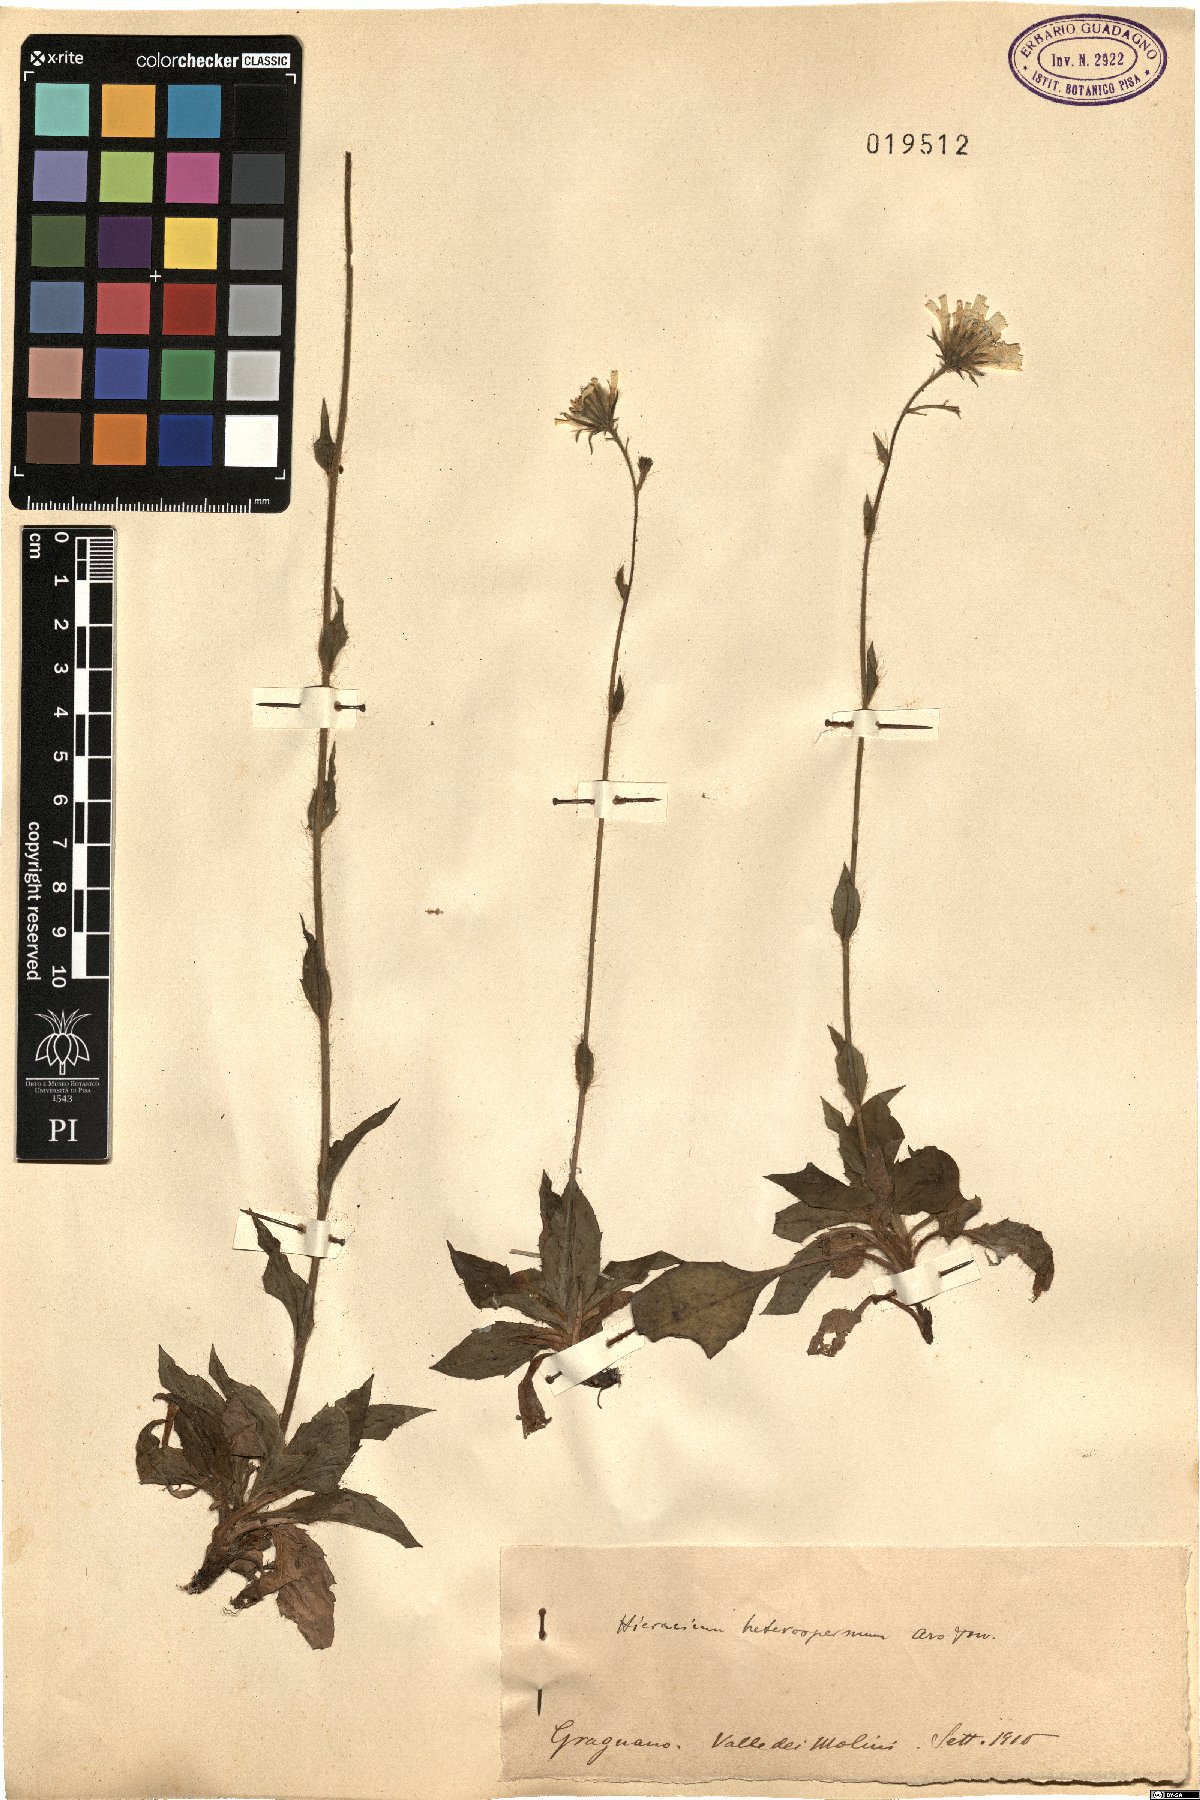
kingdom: Plantae
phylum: Tracheophyta
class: Magnoliopsida
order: Asterales
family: Asteraceae
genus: Hieracium
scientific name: Hieracium racemosum
